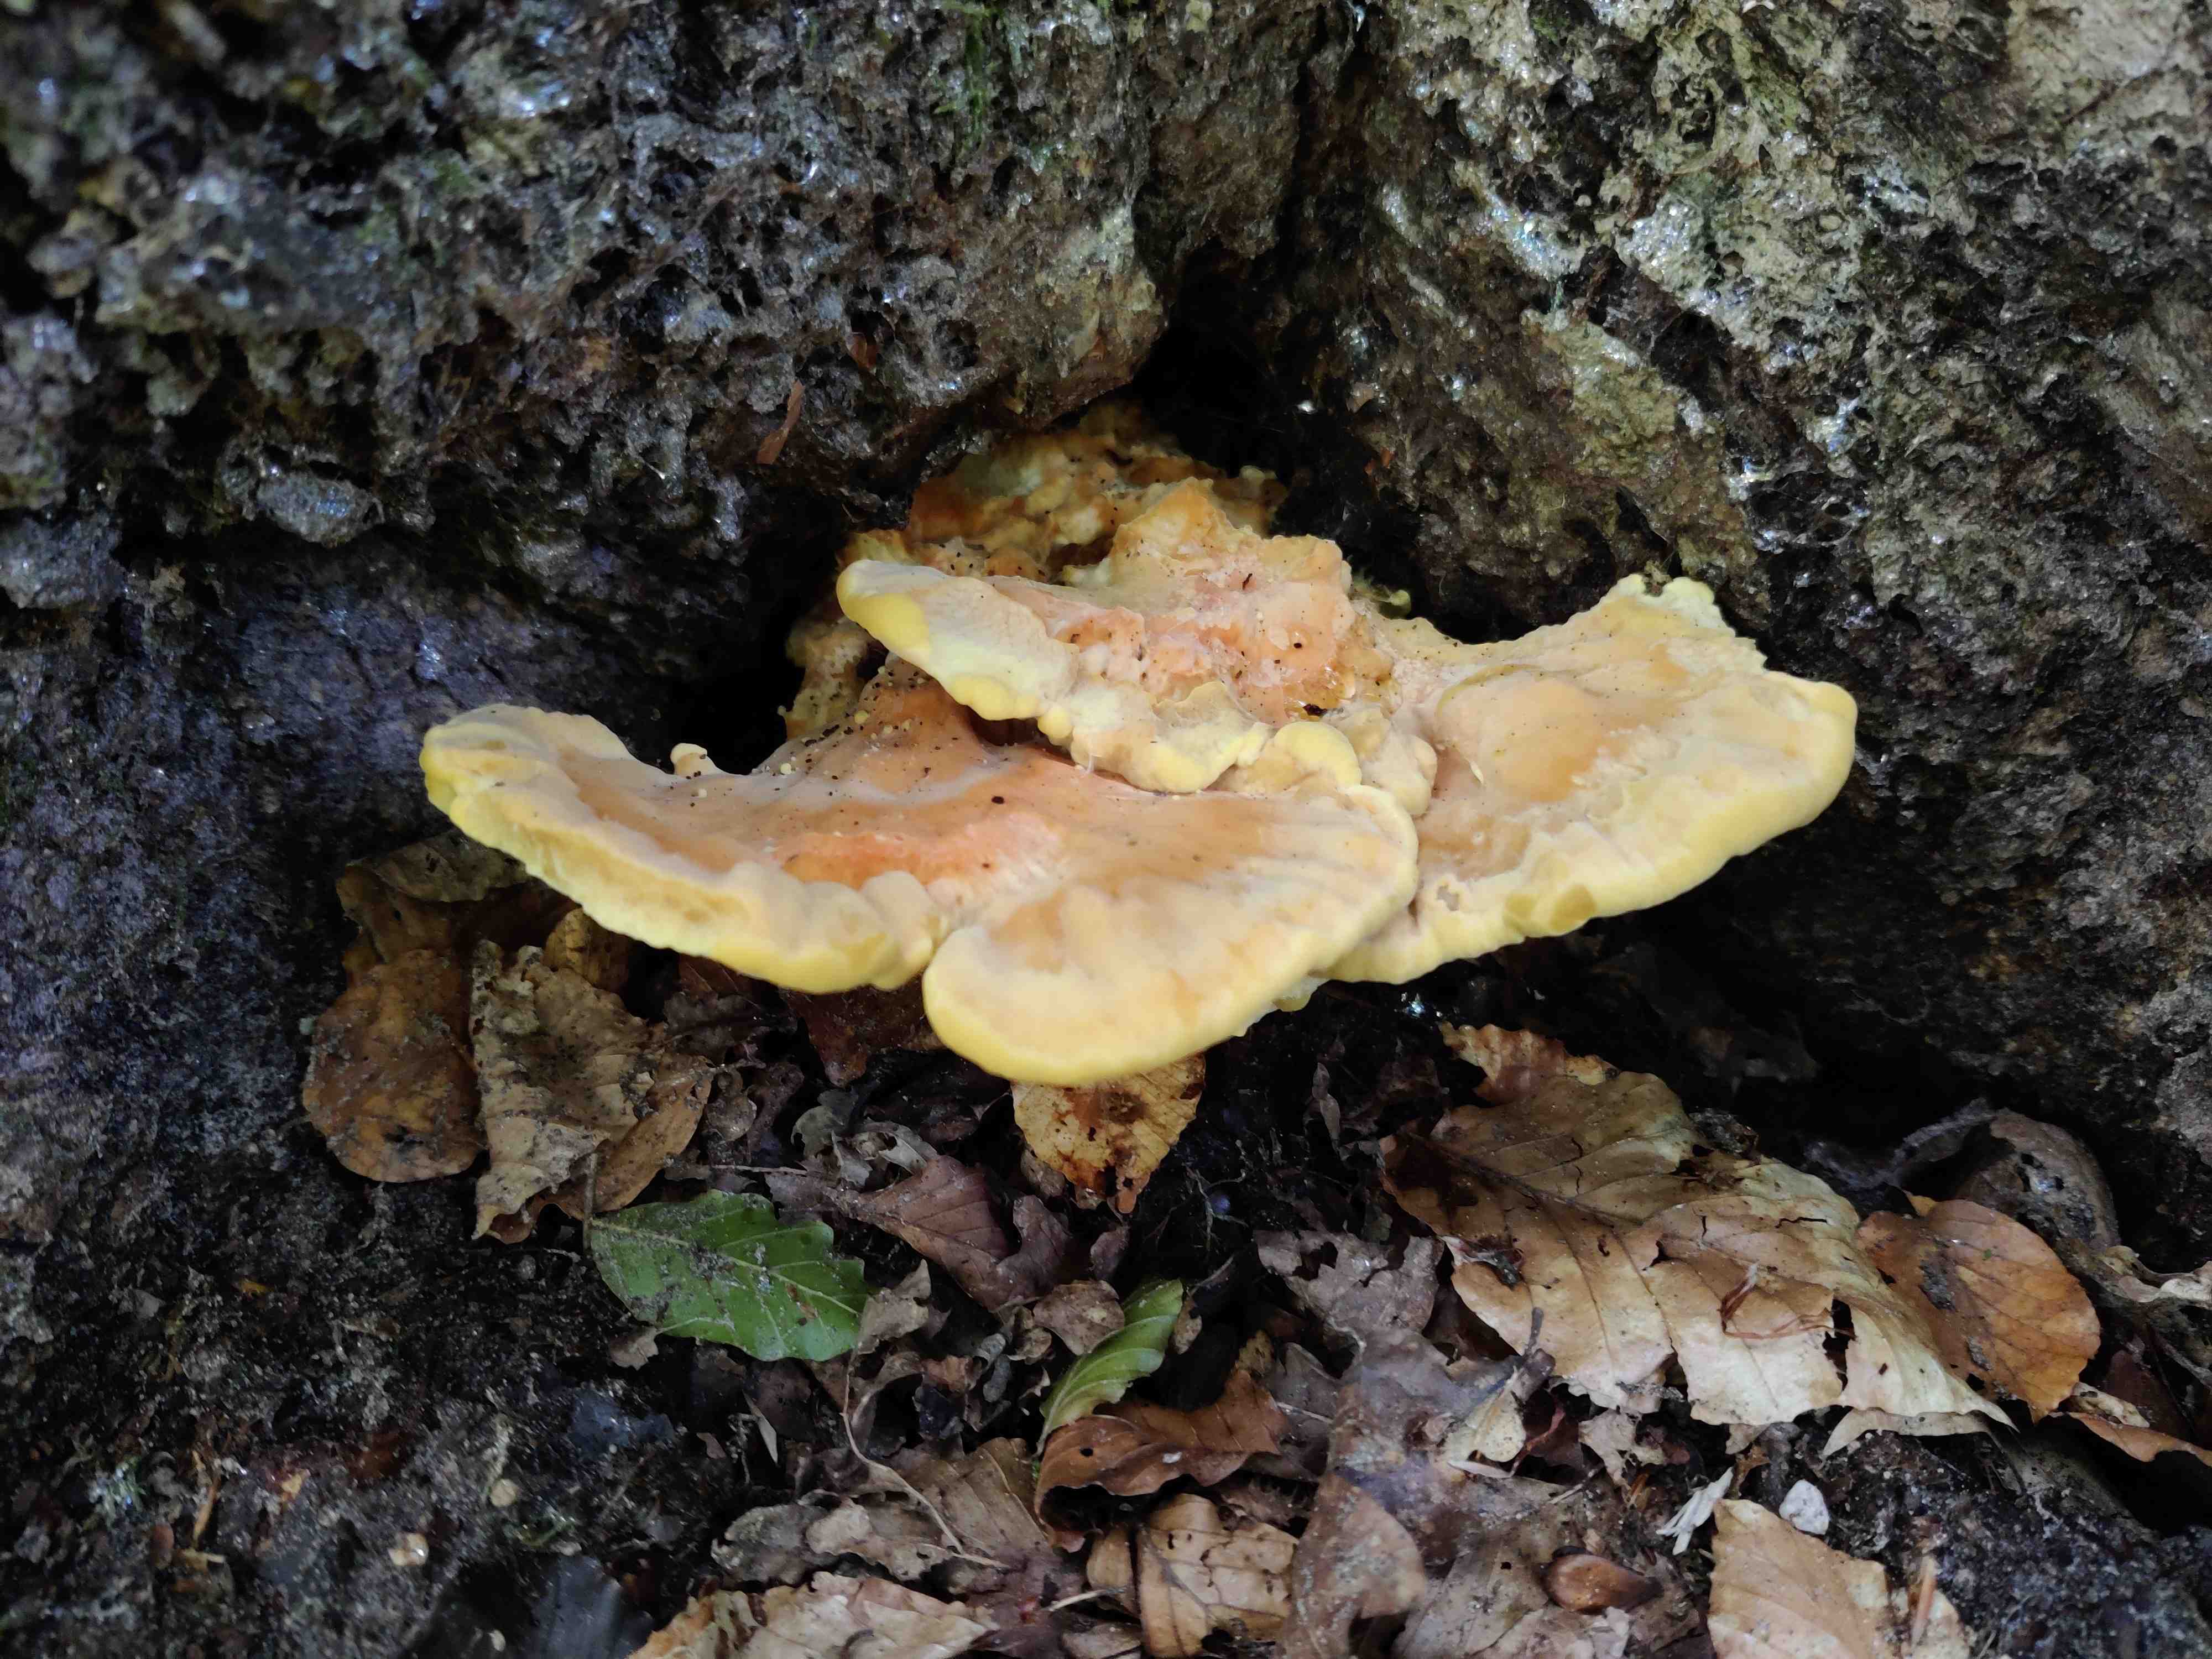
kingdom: Fungi
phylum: Basidiomycota
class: Agaricomycetes
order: Polyporales
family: Laetiporaceae
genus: Laetiporus
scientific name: Laetiporus sulphureus
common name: svovlporesvamp
